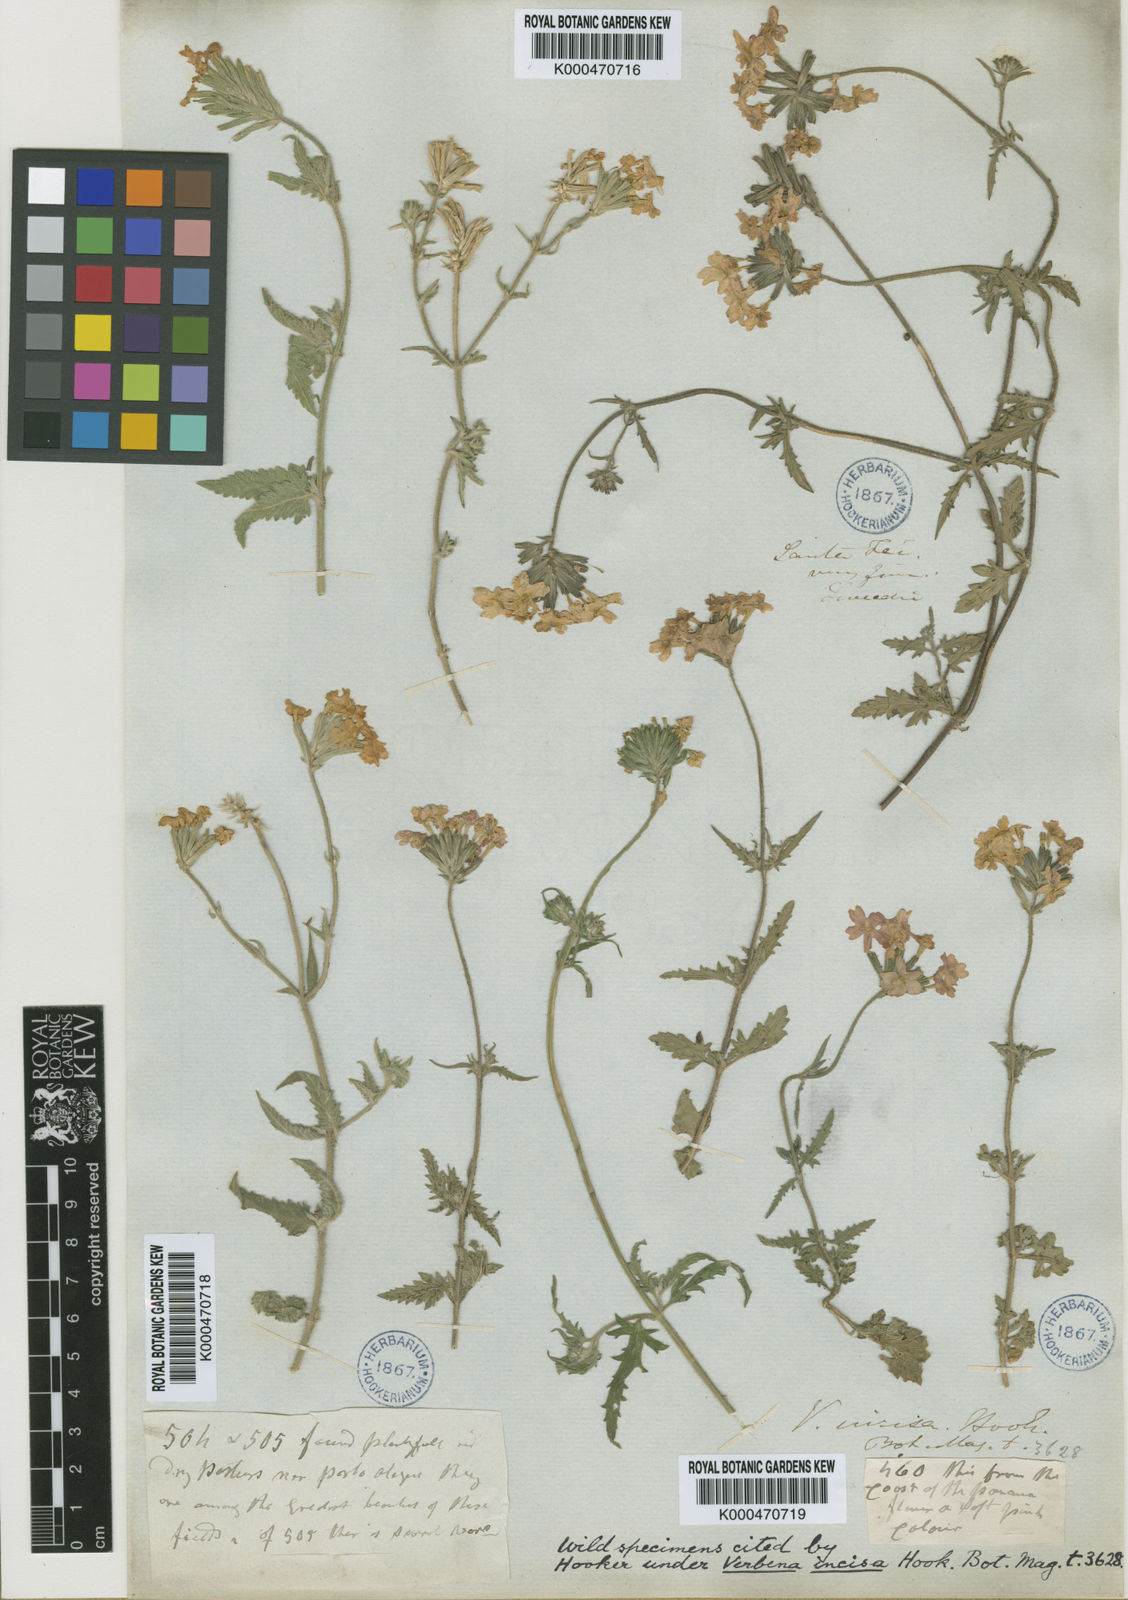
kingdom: Plantae
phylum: Tracheophyta
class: Magnoliopsida
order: Lamiales
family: Verbenaceae
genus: Verbena
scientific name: Verbena tweedieana
